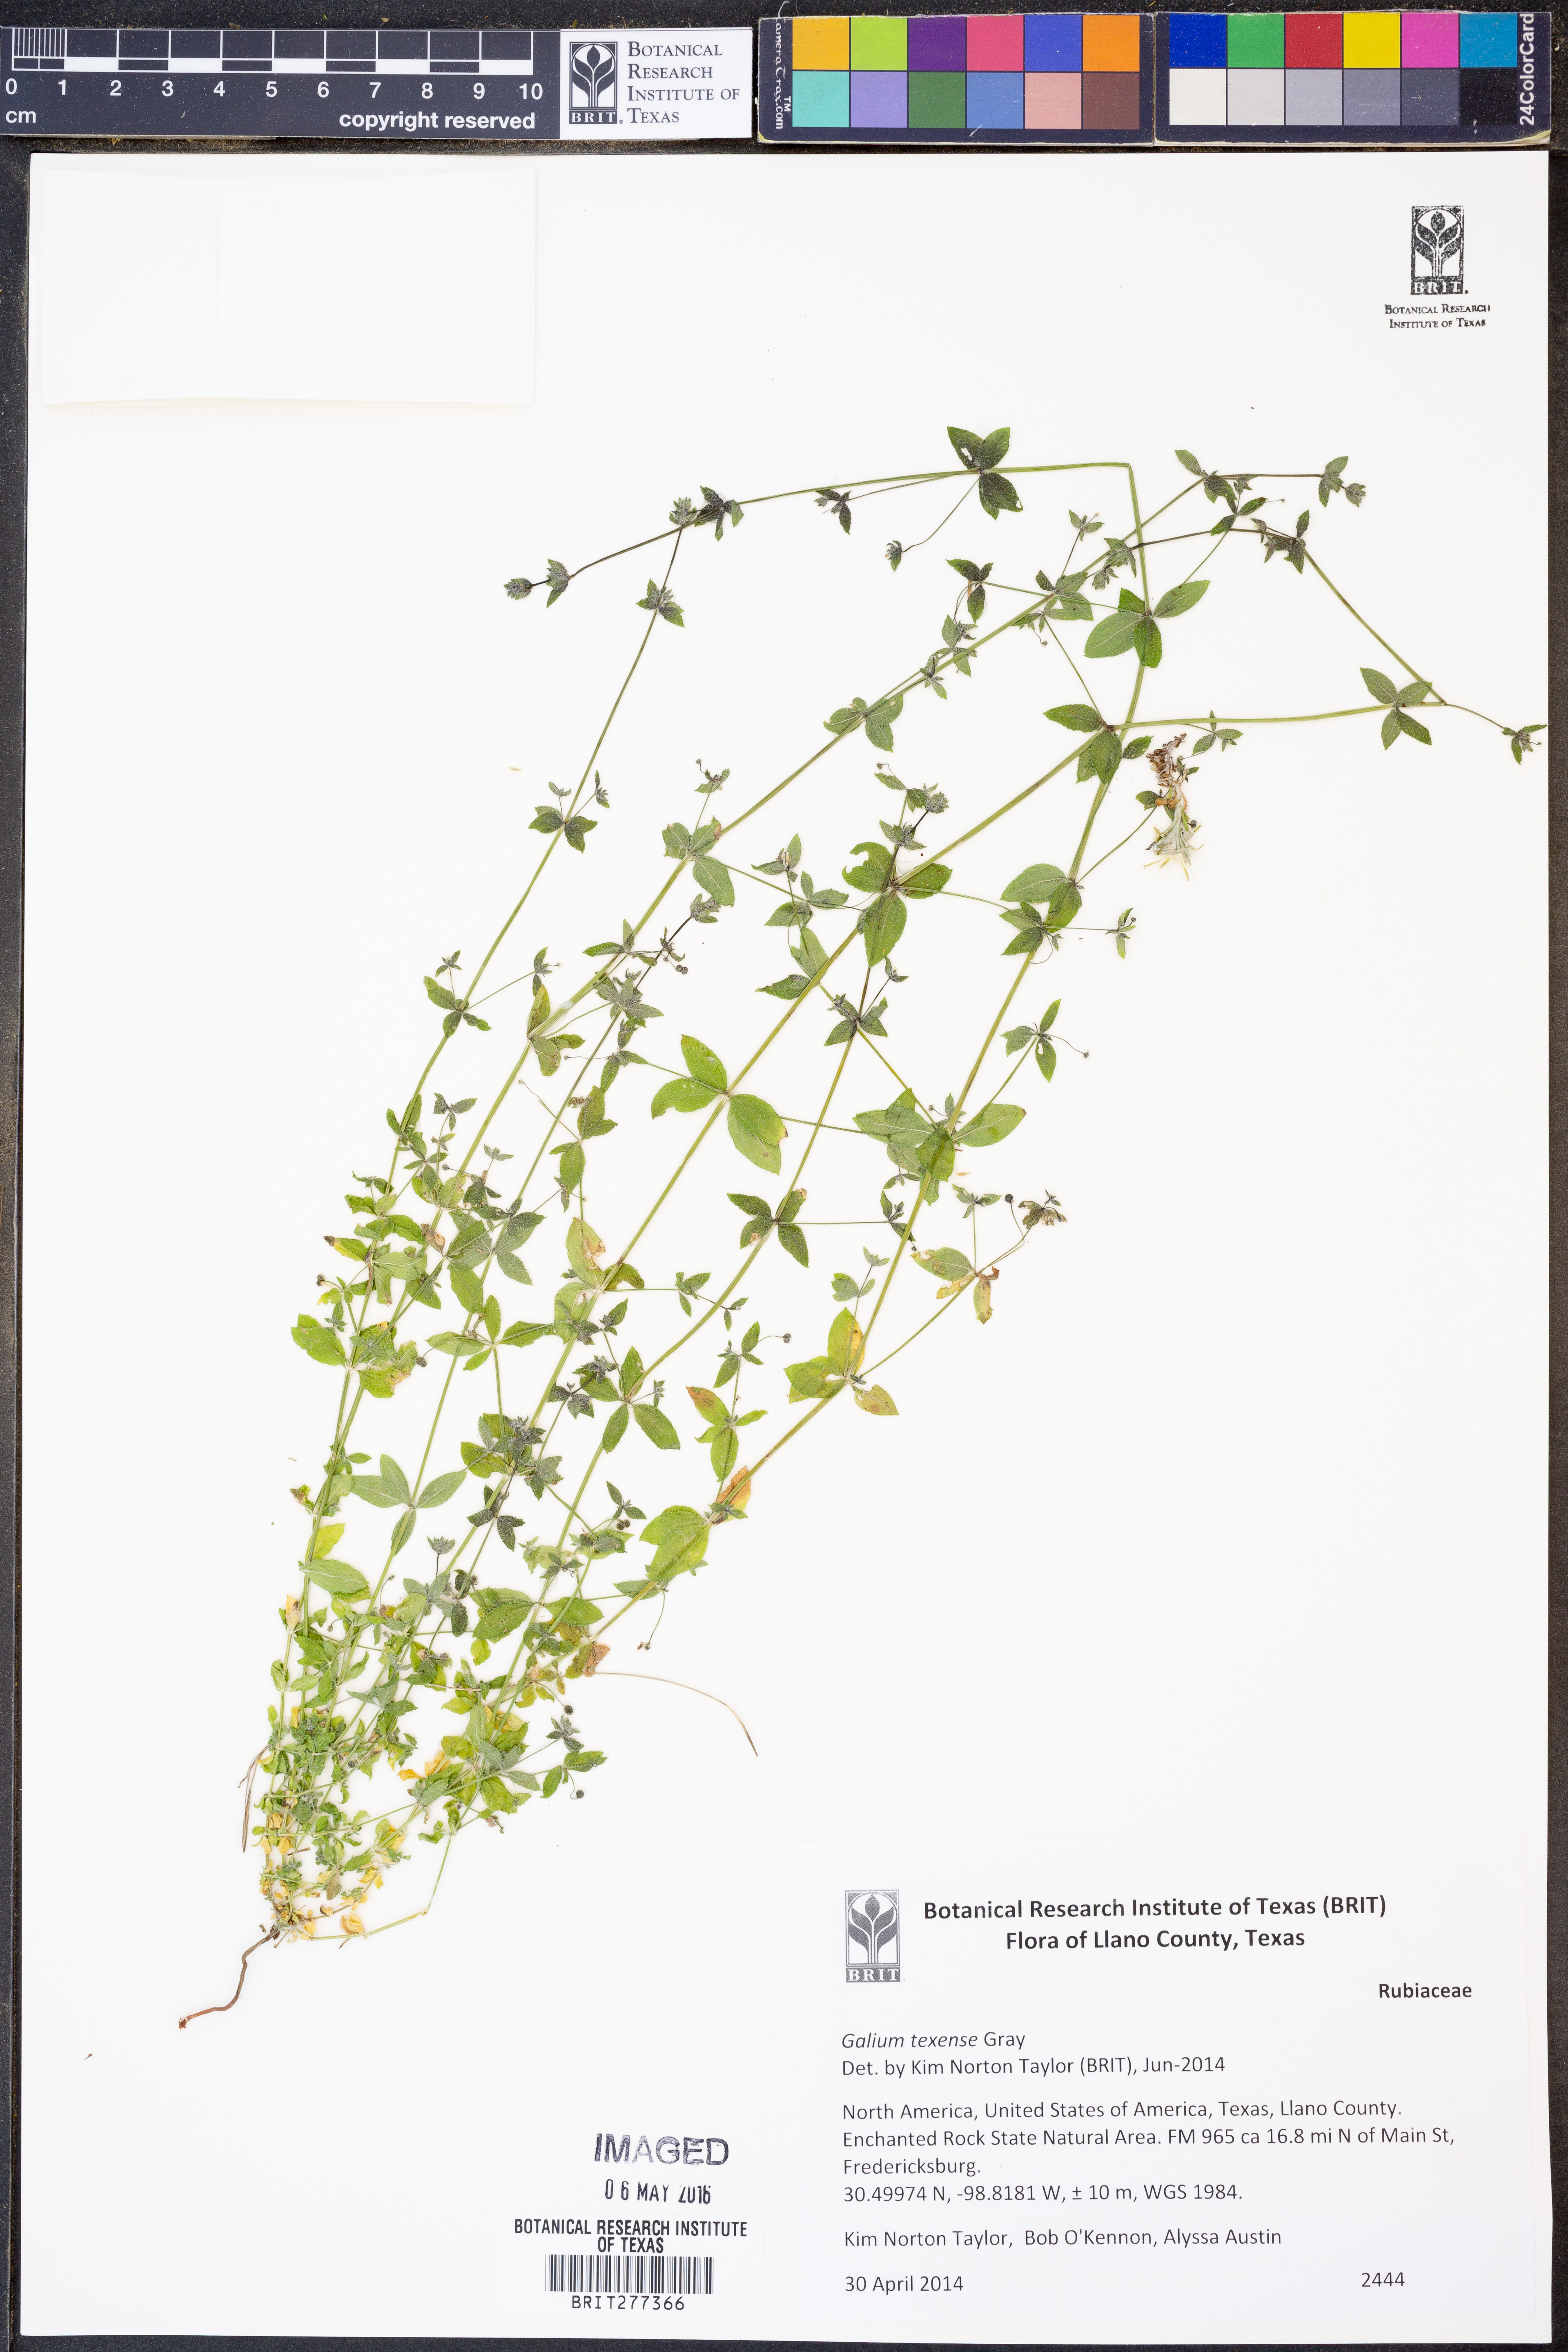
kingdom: Plantae
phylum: Tracheophyta
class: Magnoliopsida
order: Gentianales
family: Rubiaceae
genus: Galium
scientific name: Galium texense
